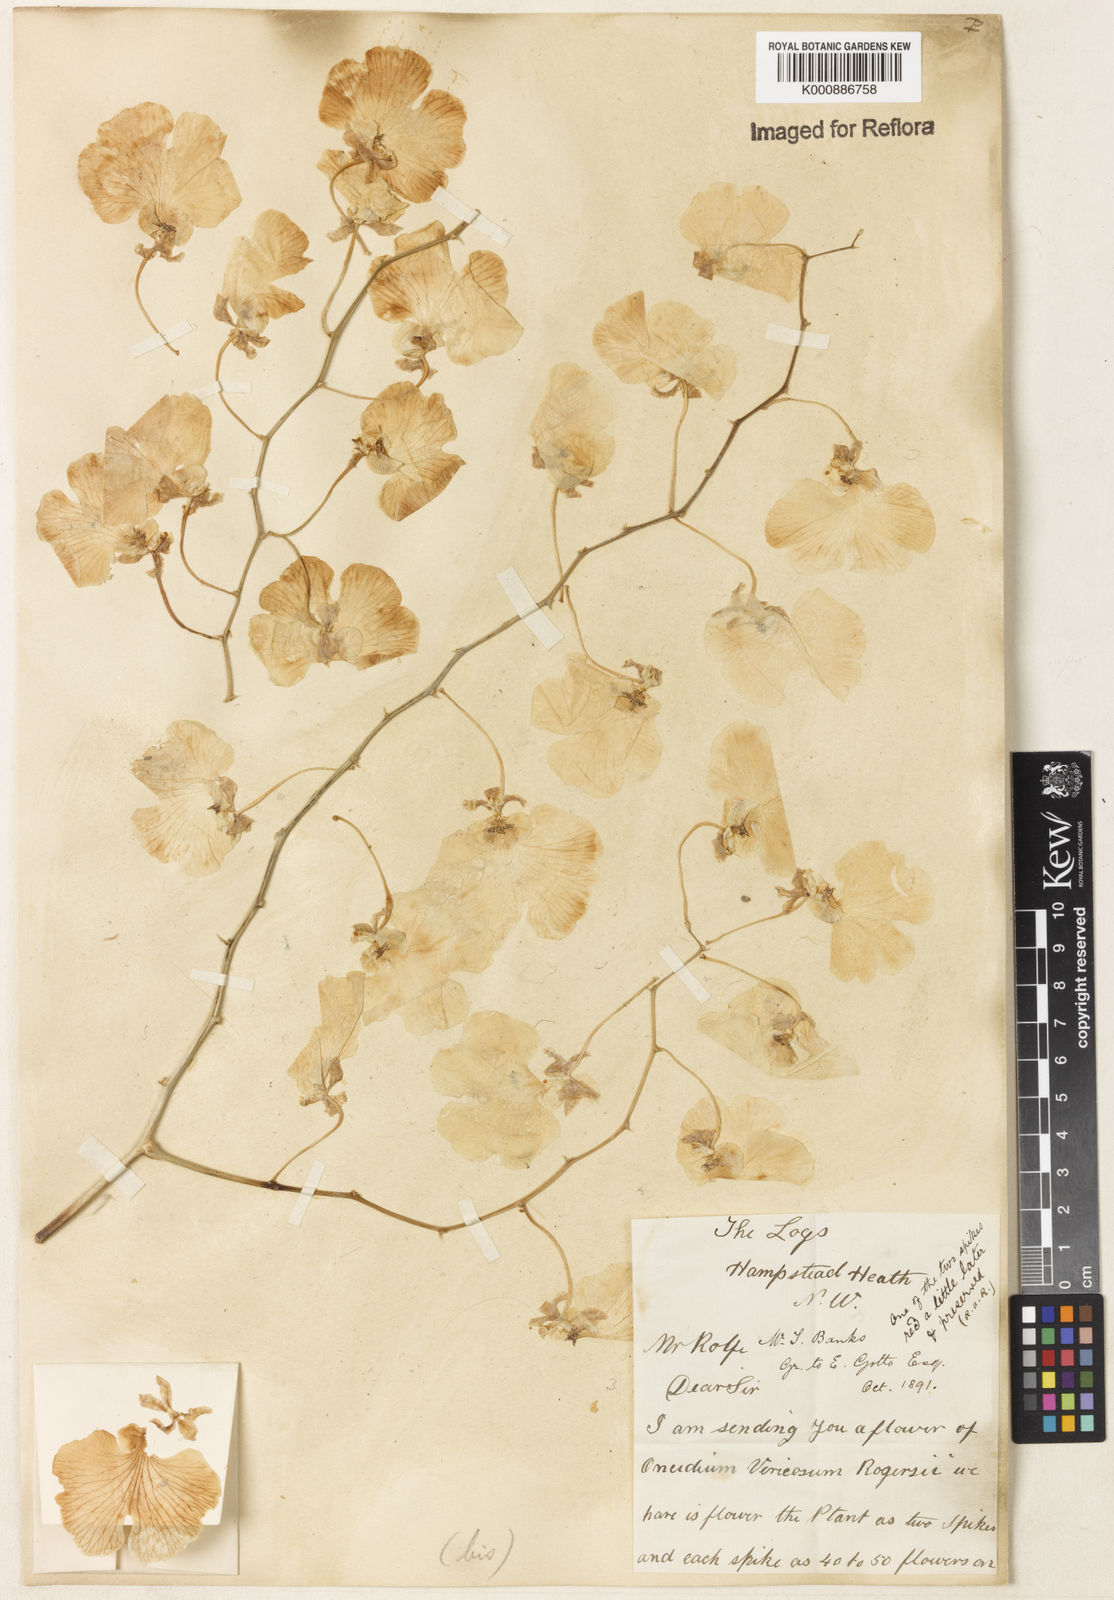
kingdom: Plantae
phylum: Tracheophyta
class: Liliopsida
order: Asparagales
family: Orchidaceae
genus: Gomesa
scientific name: Gomesa varicosa
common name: Dancing ladies
